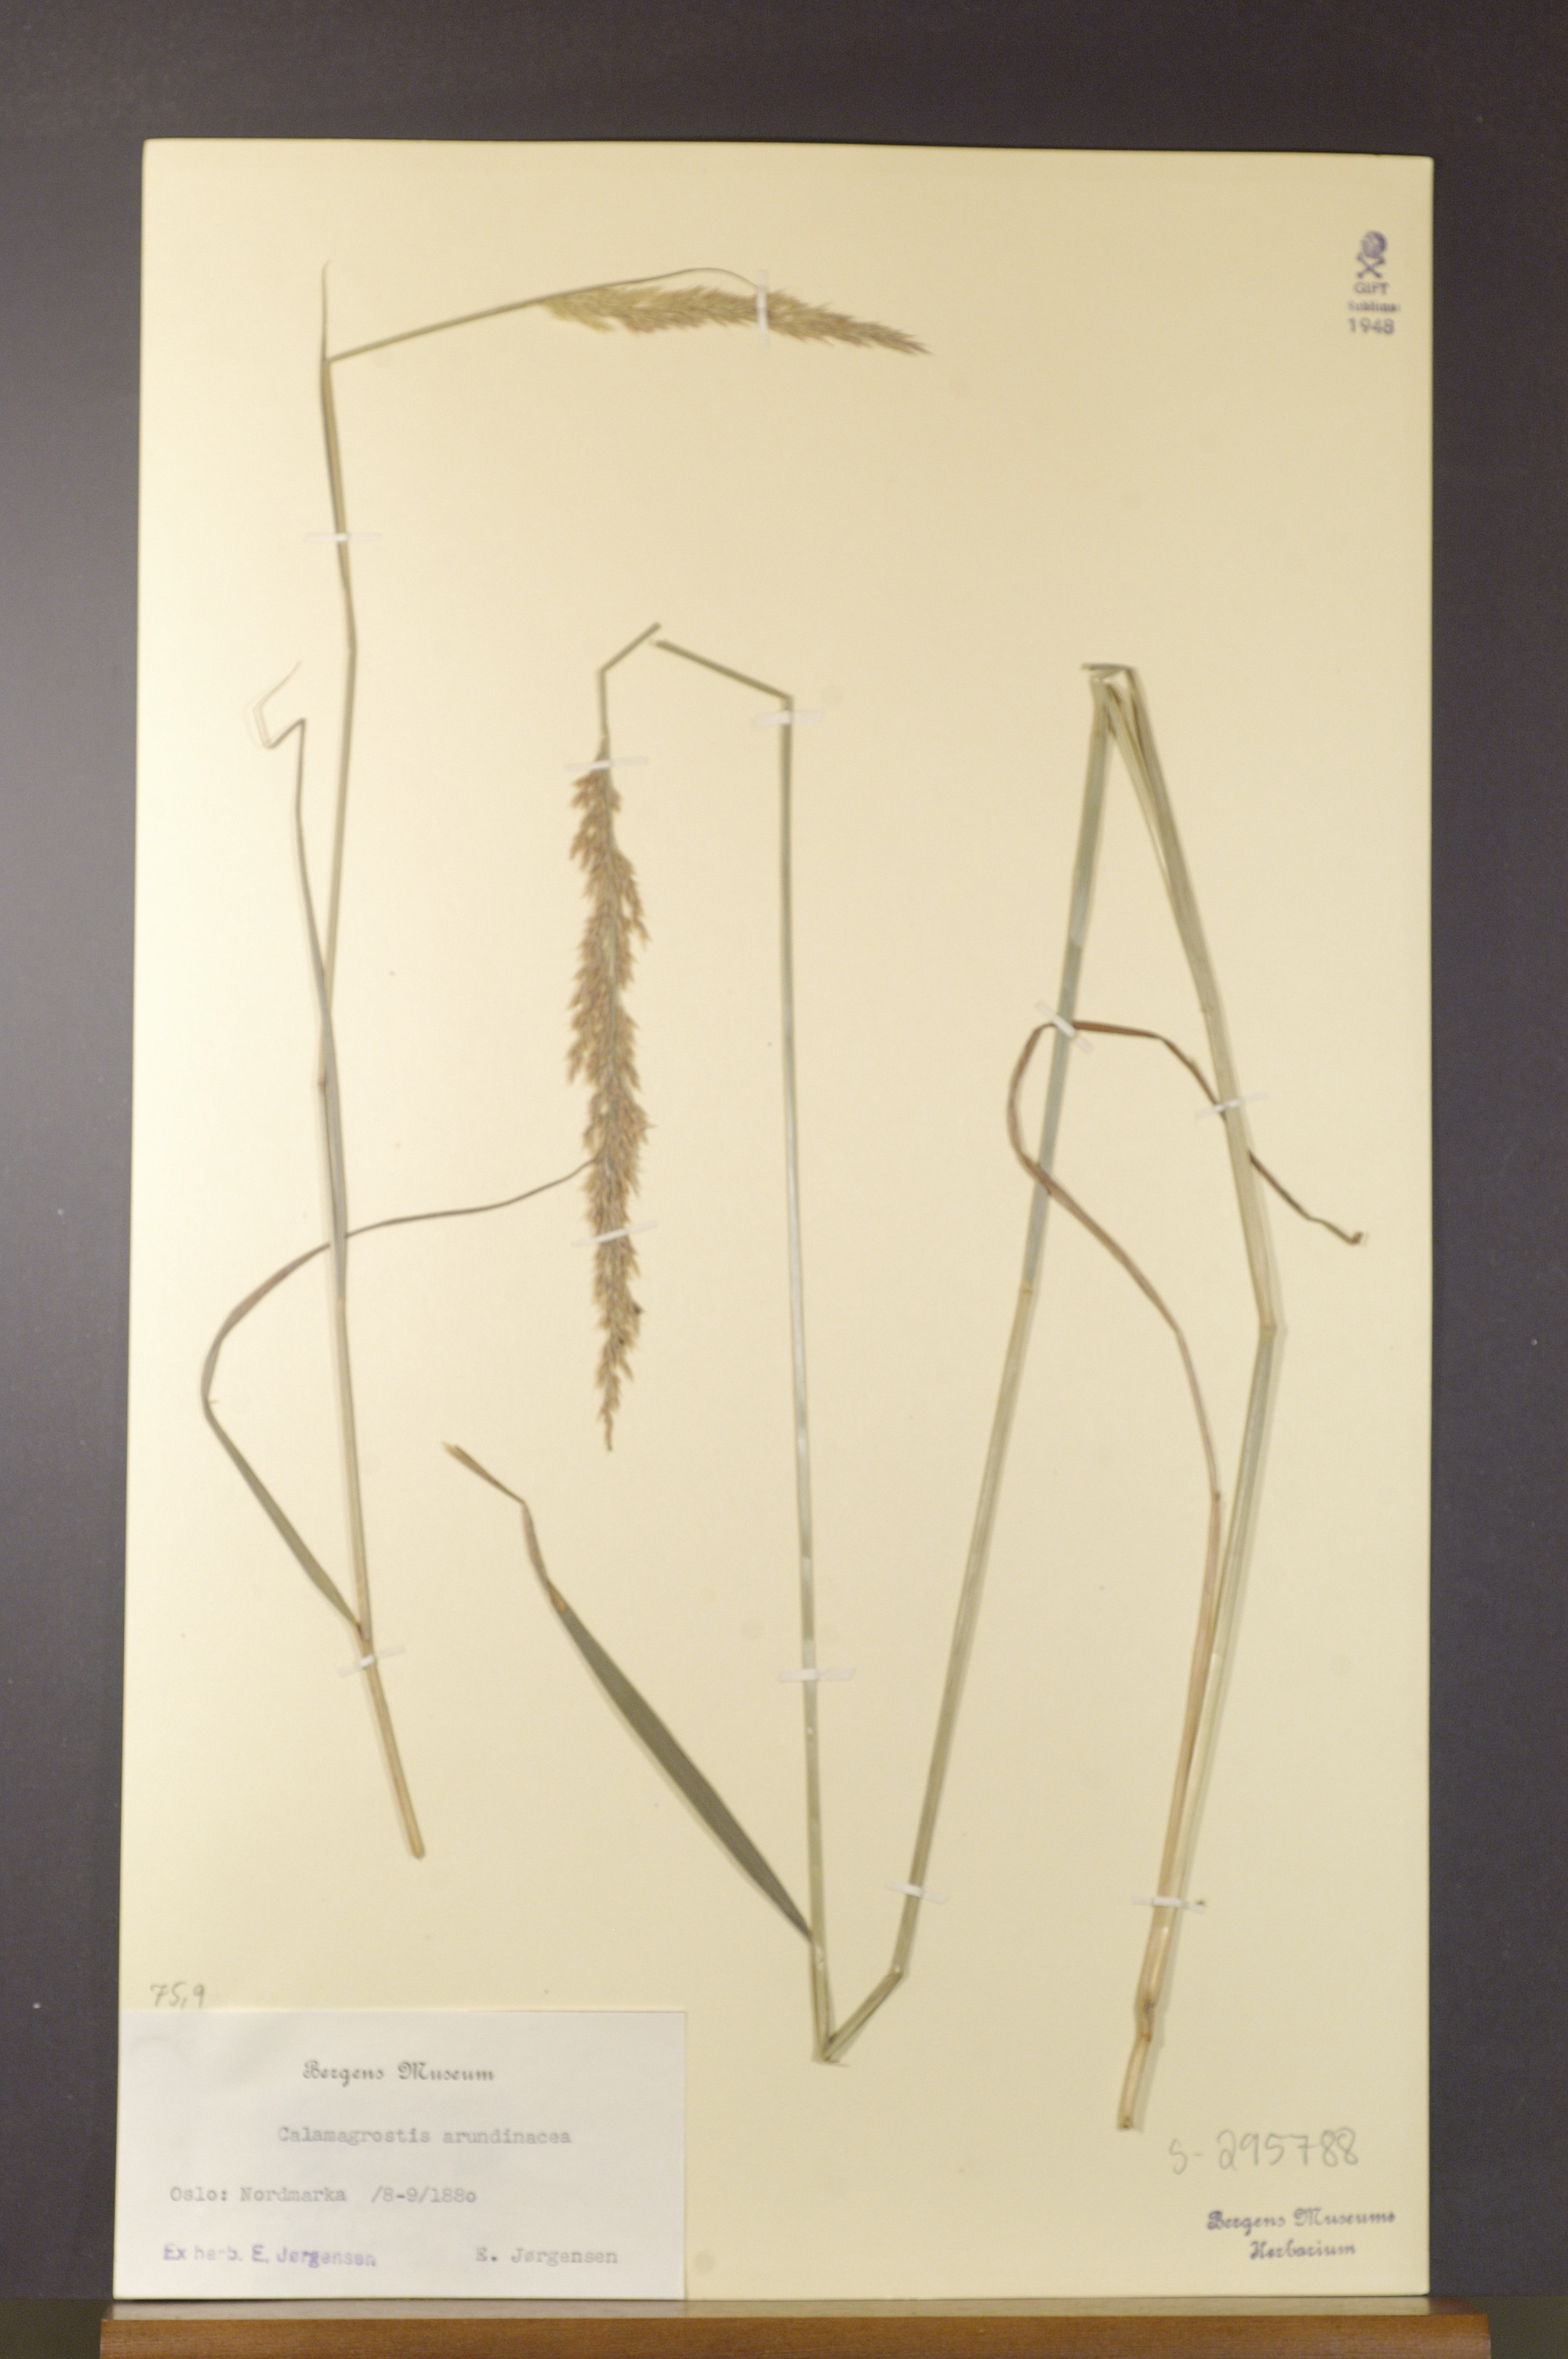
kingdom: Plantae
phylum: Tracheophyta
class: Liliopsida
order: Poales
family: Poaceae
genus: Calamagrostis
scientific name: Calamagrostis arundinacea
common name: Metskastik
